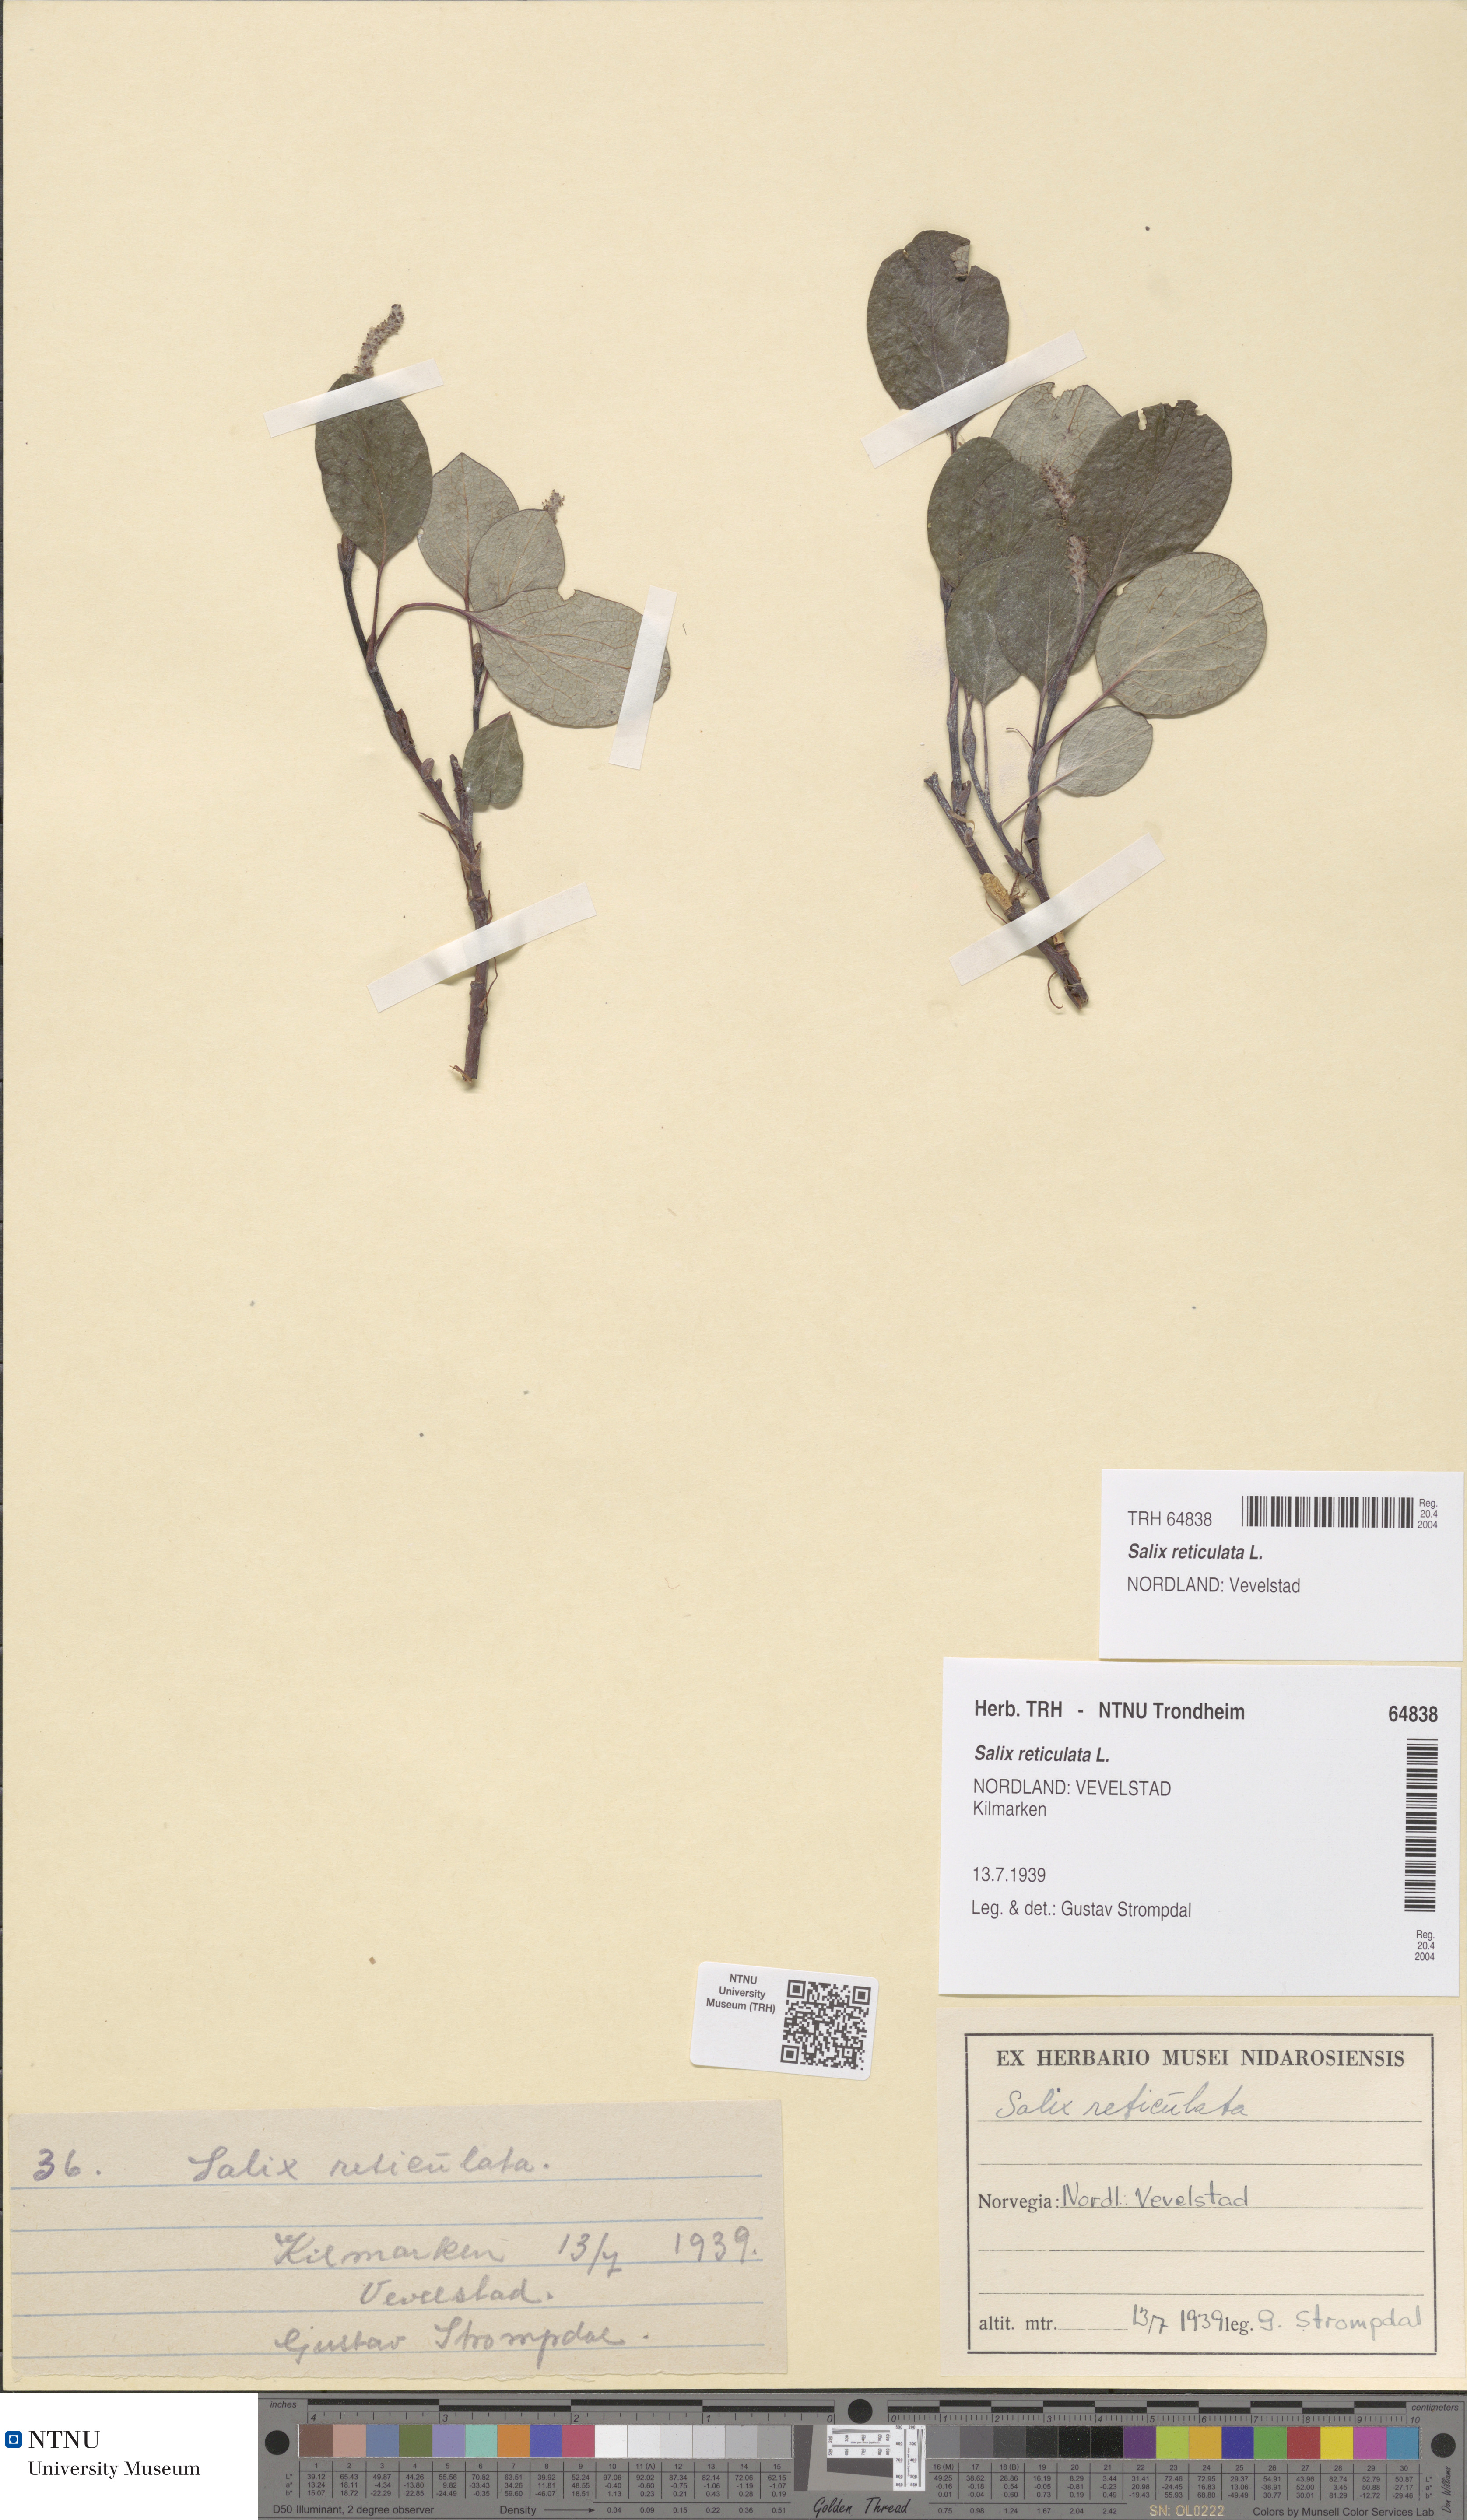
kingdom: Plantae
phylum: Tracheophyta
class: Magnoliopsida
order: Malpighiales
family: Salicaceae
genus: Salix
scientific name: Salix reticulata
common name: Net-leaved willow
